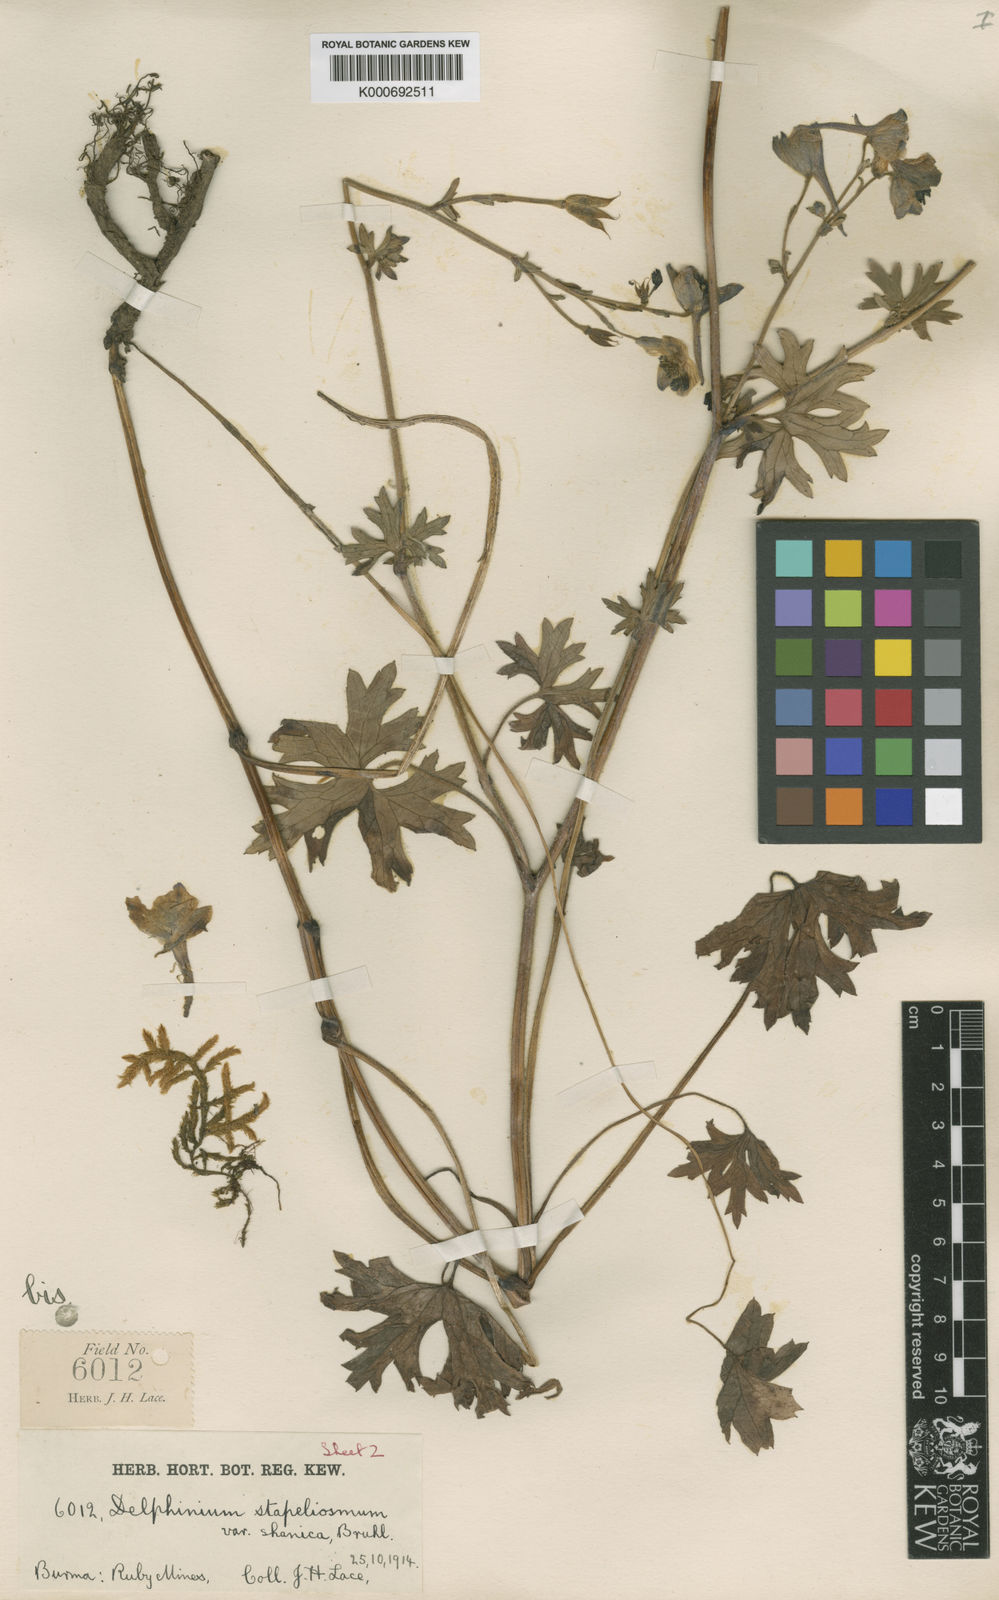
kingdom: Plantae
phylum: Tracheophyta
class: Magnoliopsida
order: Ranunculales
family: Ranunculaceae
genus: Delphinium
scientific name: Delphinium lacei
